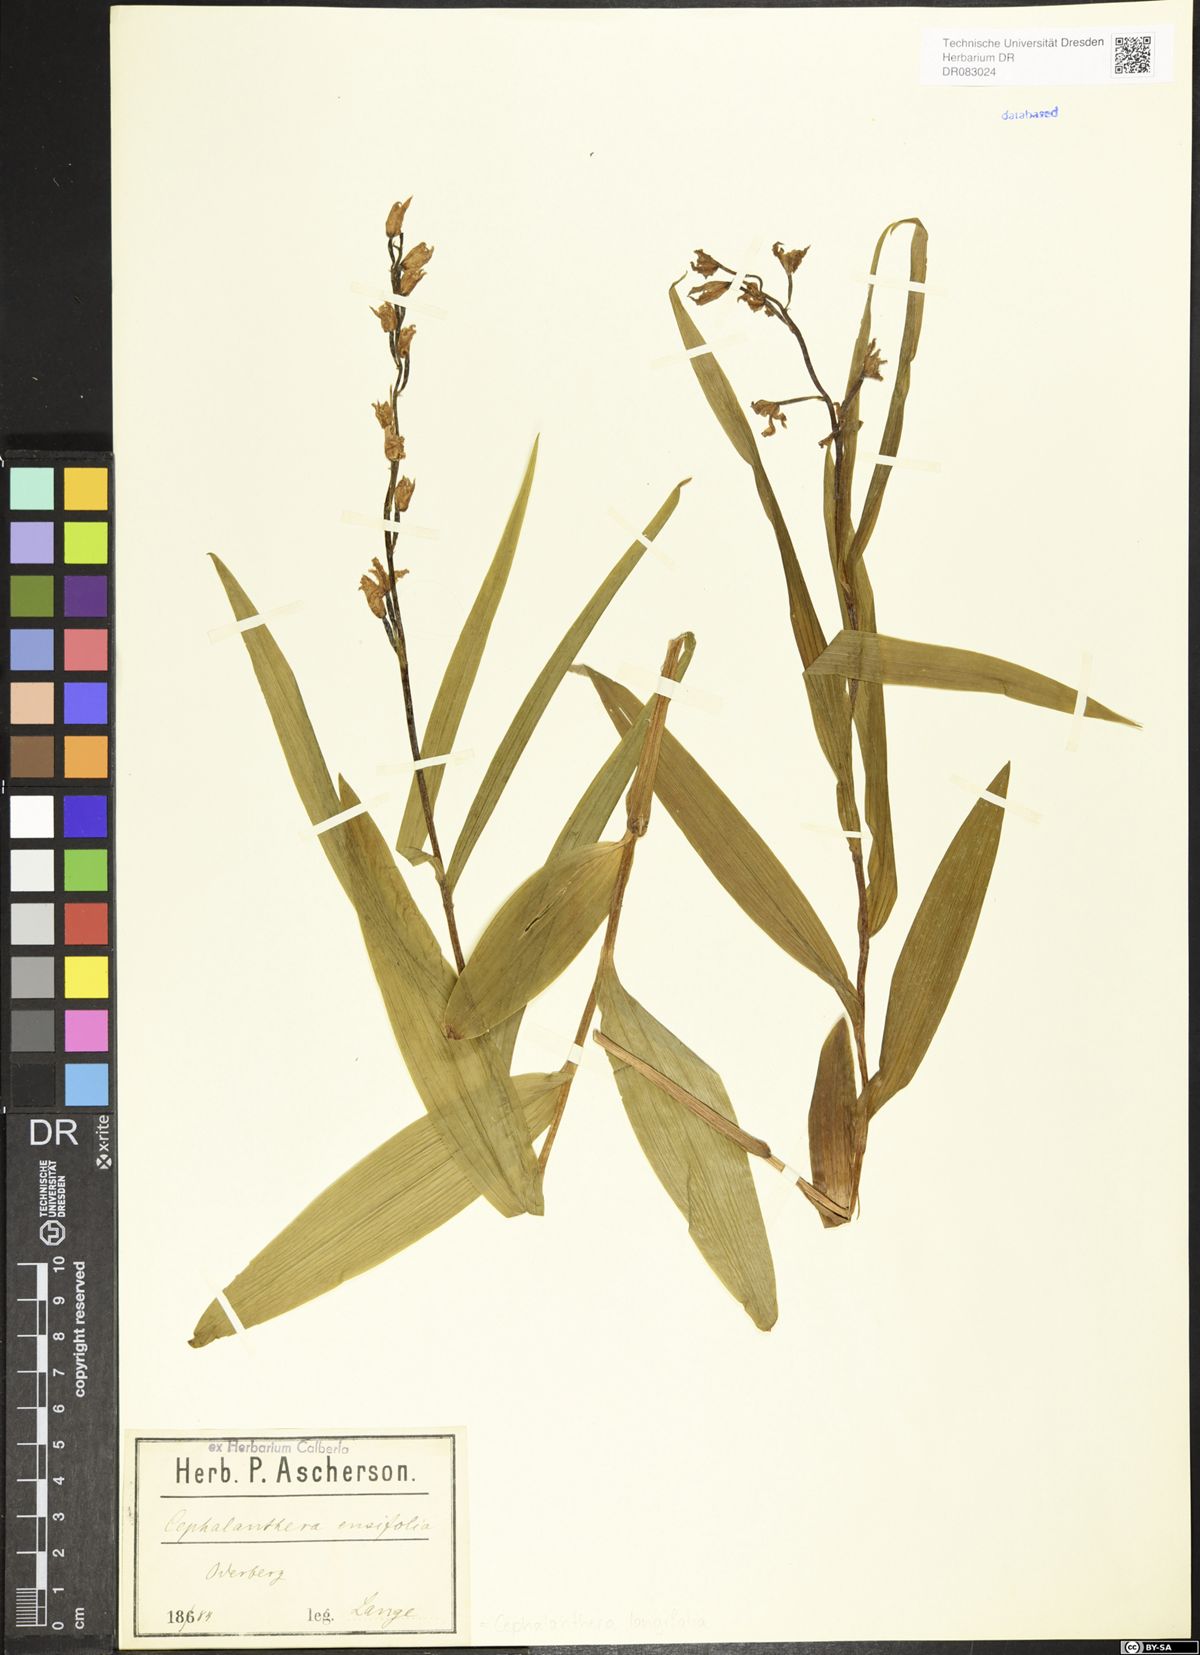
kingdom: Plantae
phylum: Tracheophyta
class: Liliopsida
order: Asparagales
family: Orchidaceae
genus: Cephalanthera
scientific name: Cephalanthera longifolia
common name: Narrow-leaved helleborine
